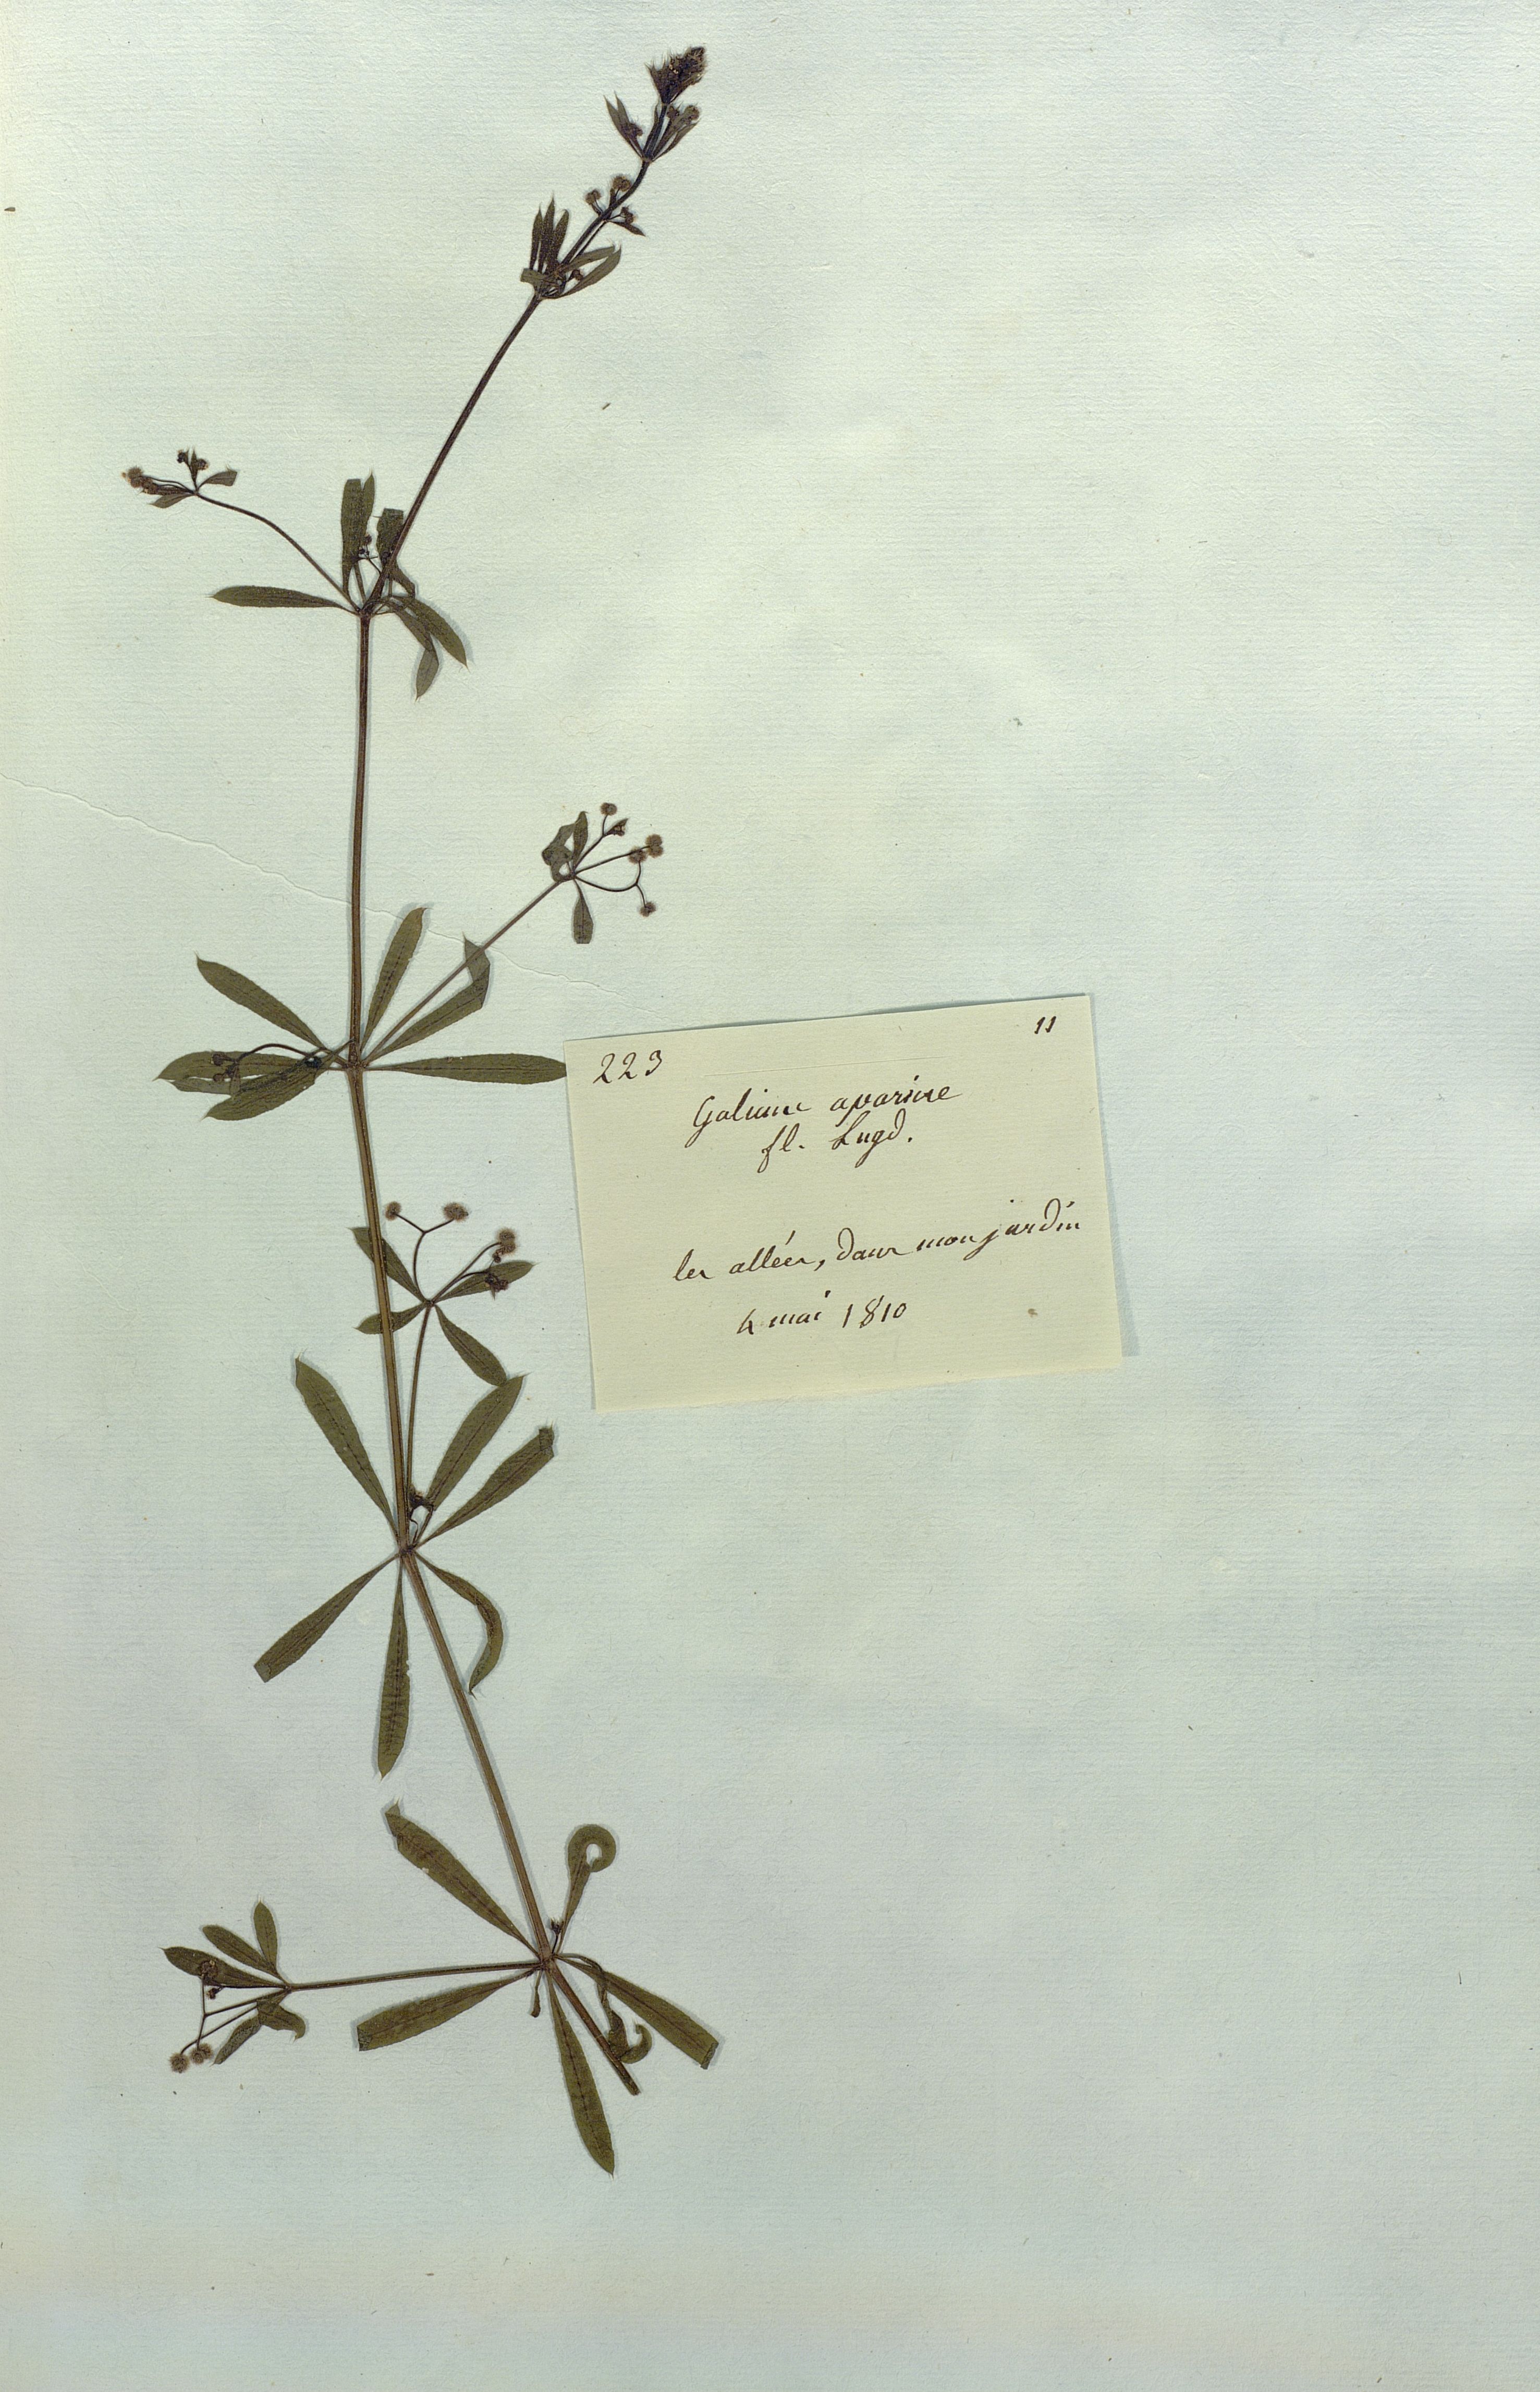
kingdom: Plantae
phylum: Tracheophyta
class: Magnoliopsida
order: Gentianales
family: Rubiaceae
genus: Galium
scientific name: Galium aparine
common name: Cleavers
